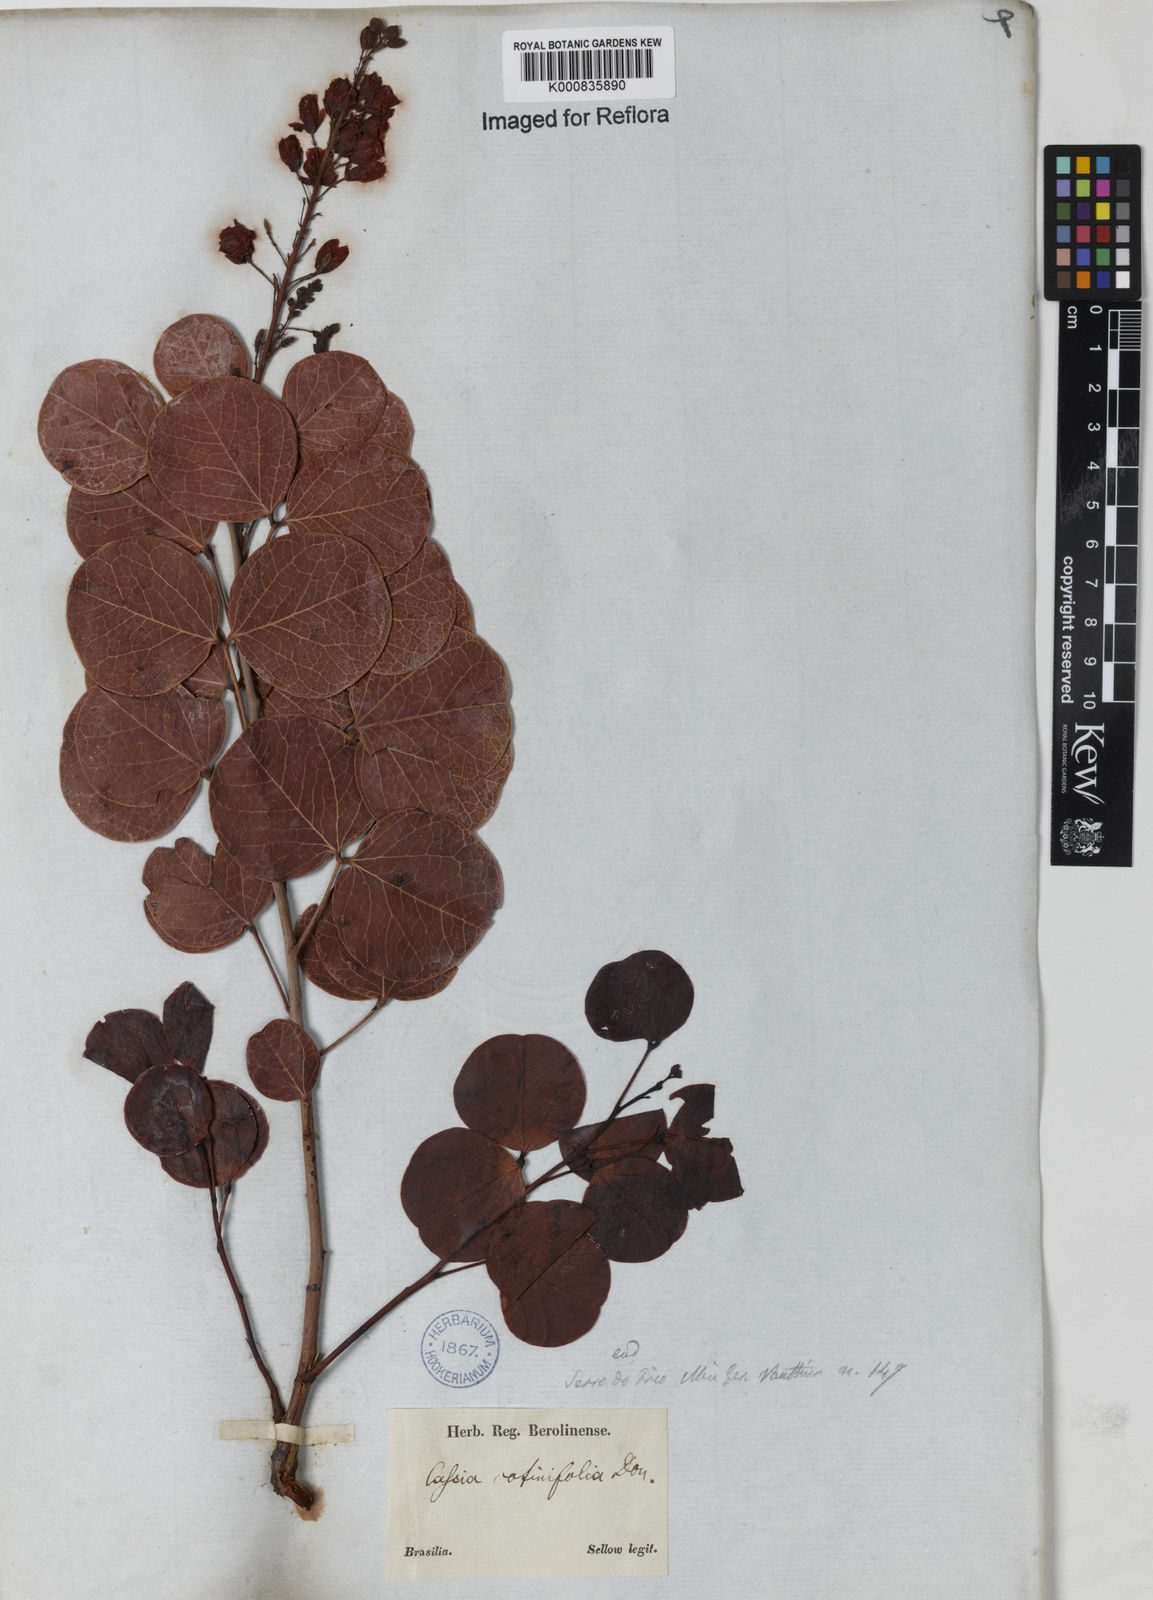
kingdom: Plantae
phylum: Tracheophyta
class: Magnoliopsida
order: Fabales
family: Fabaceae
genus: Chamaecrista
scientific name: Chamaecrista cotinifolia
